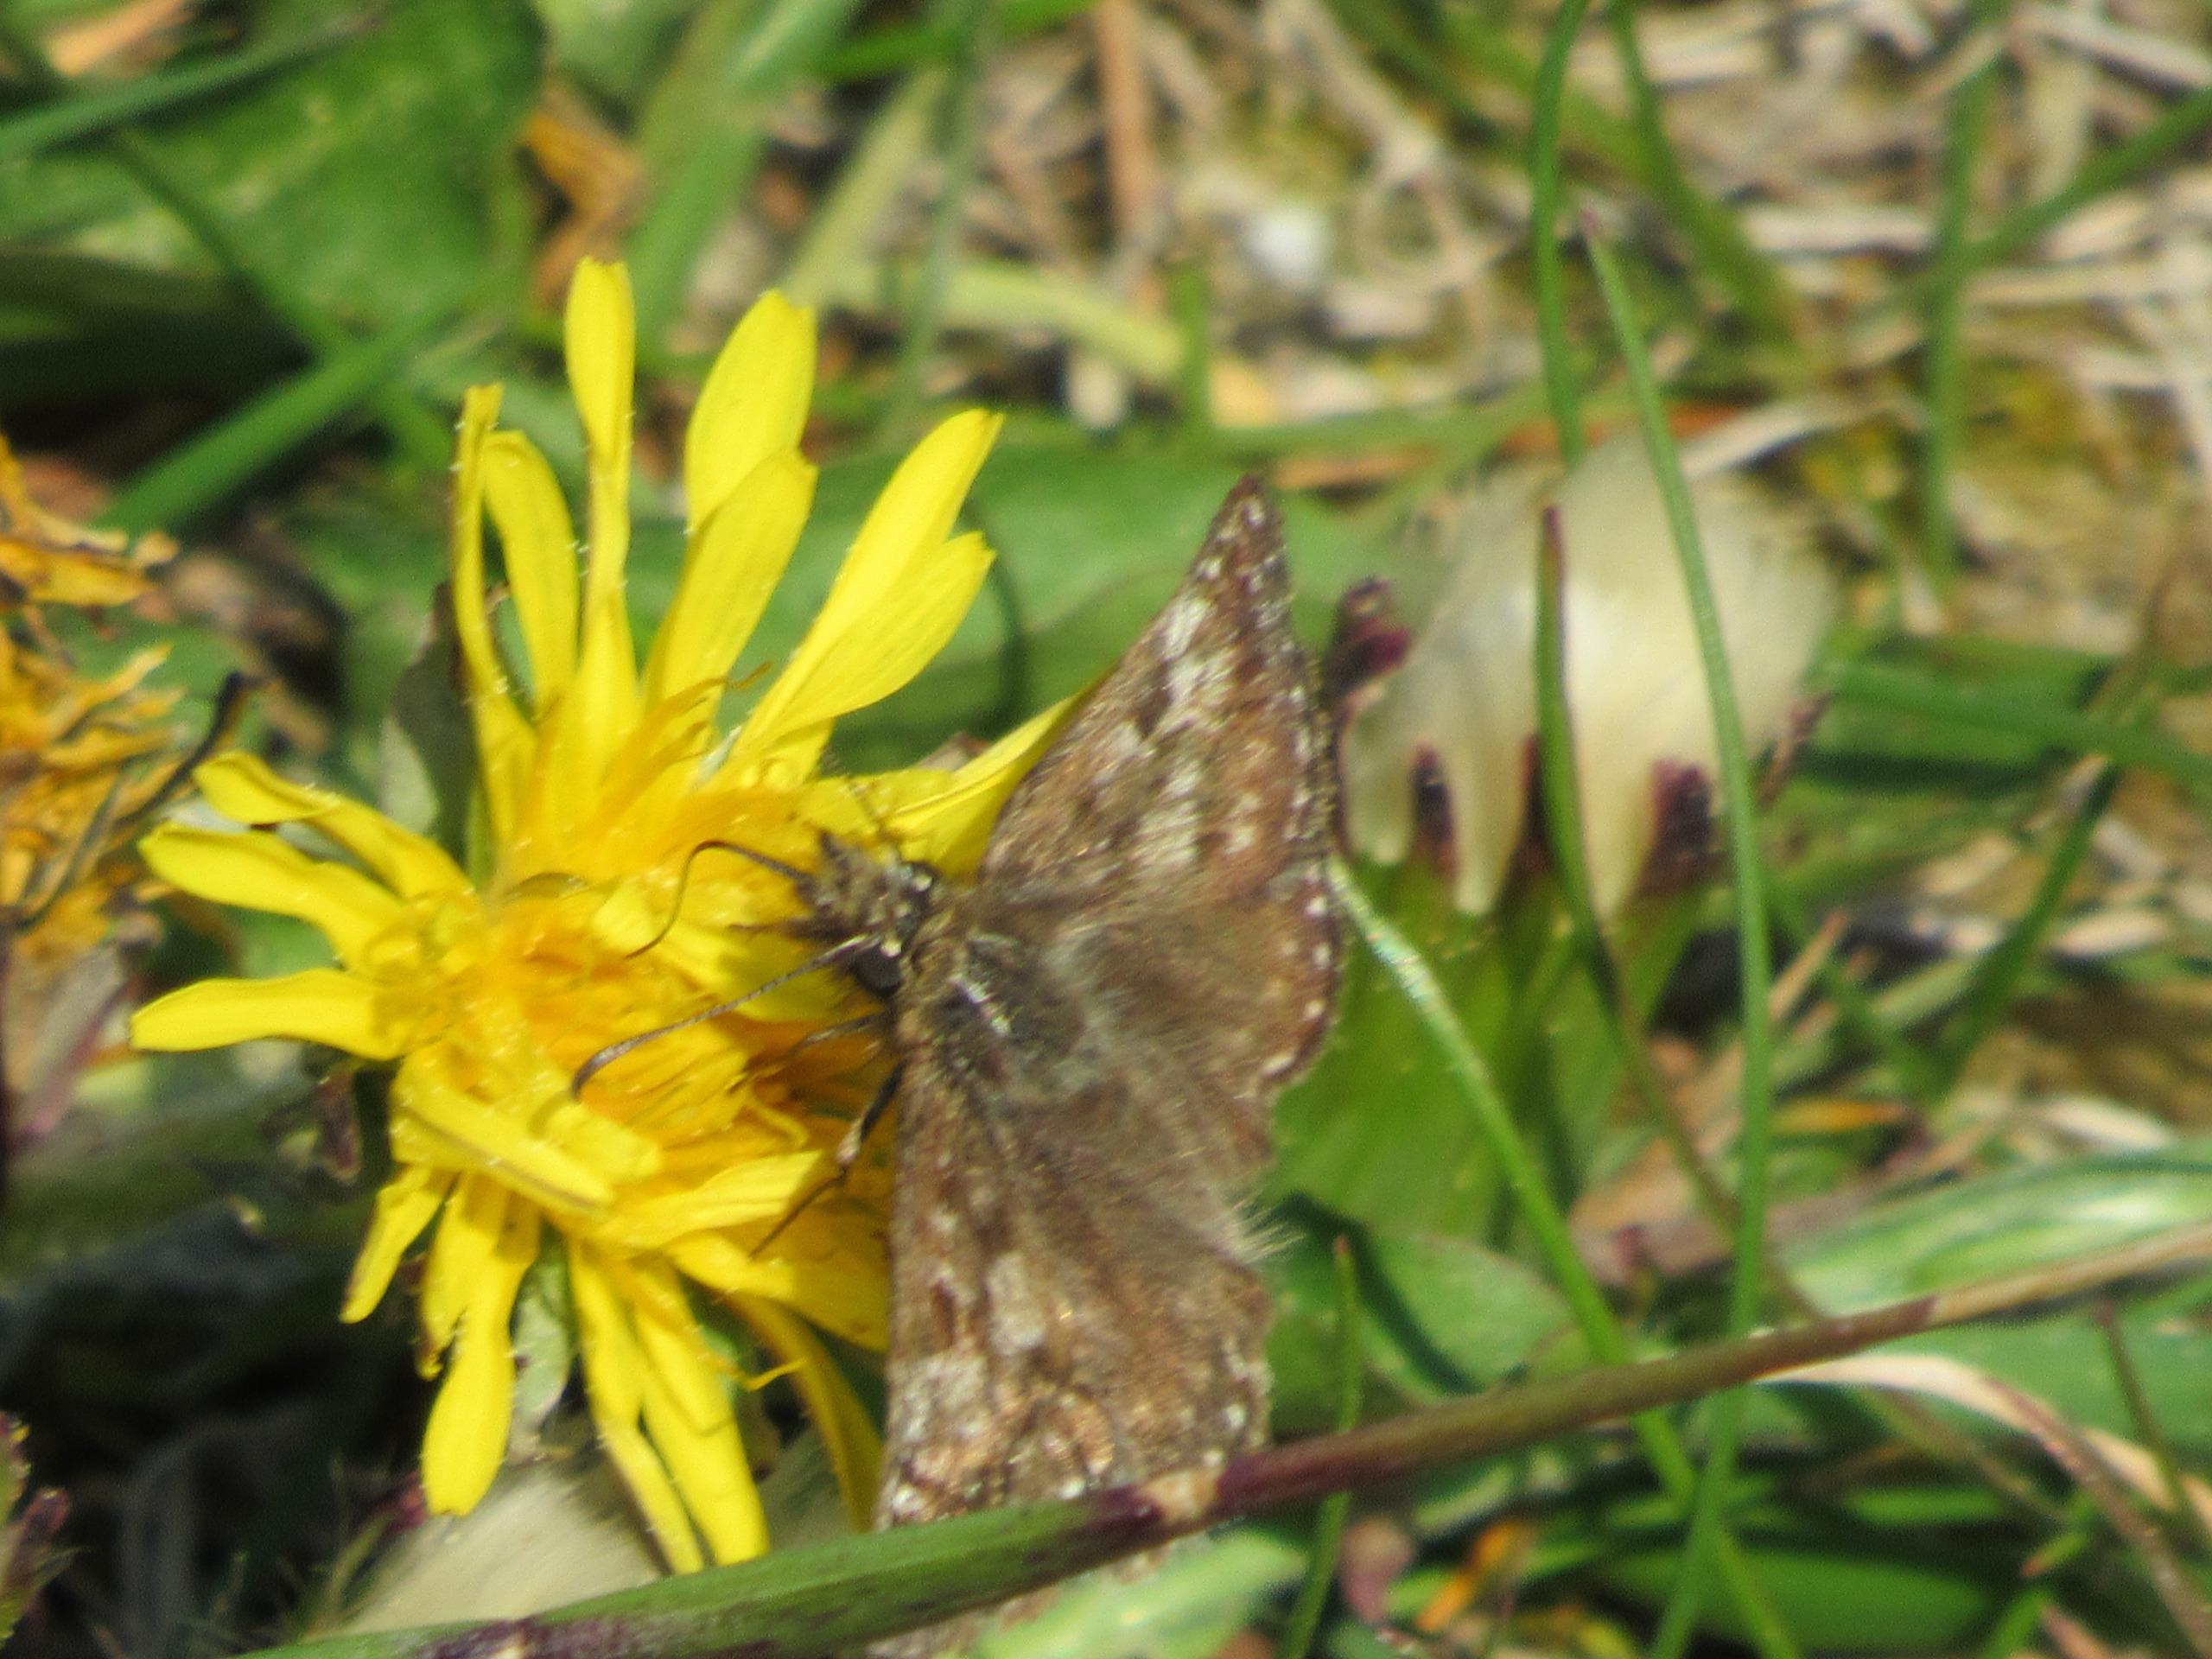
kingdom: Animalia
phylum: Arthropoda
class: Insecta
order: Lepidoptera
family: Hesperiidae
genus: Erynnis
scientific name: Erynnis tages
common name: Gråbåndet bredpande
